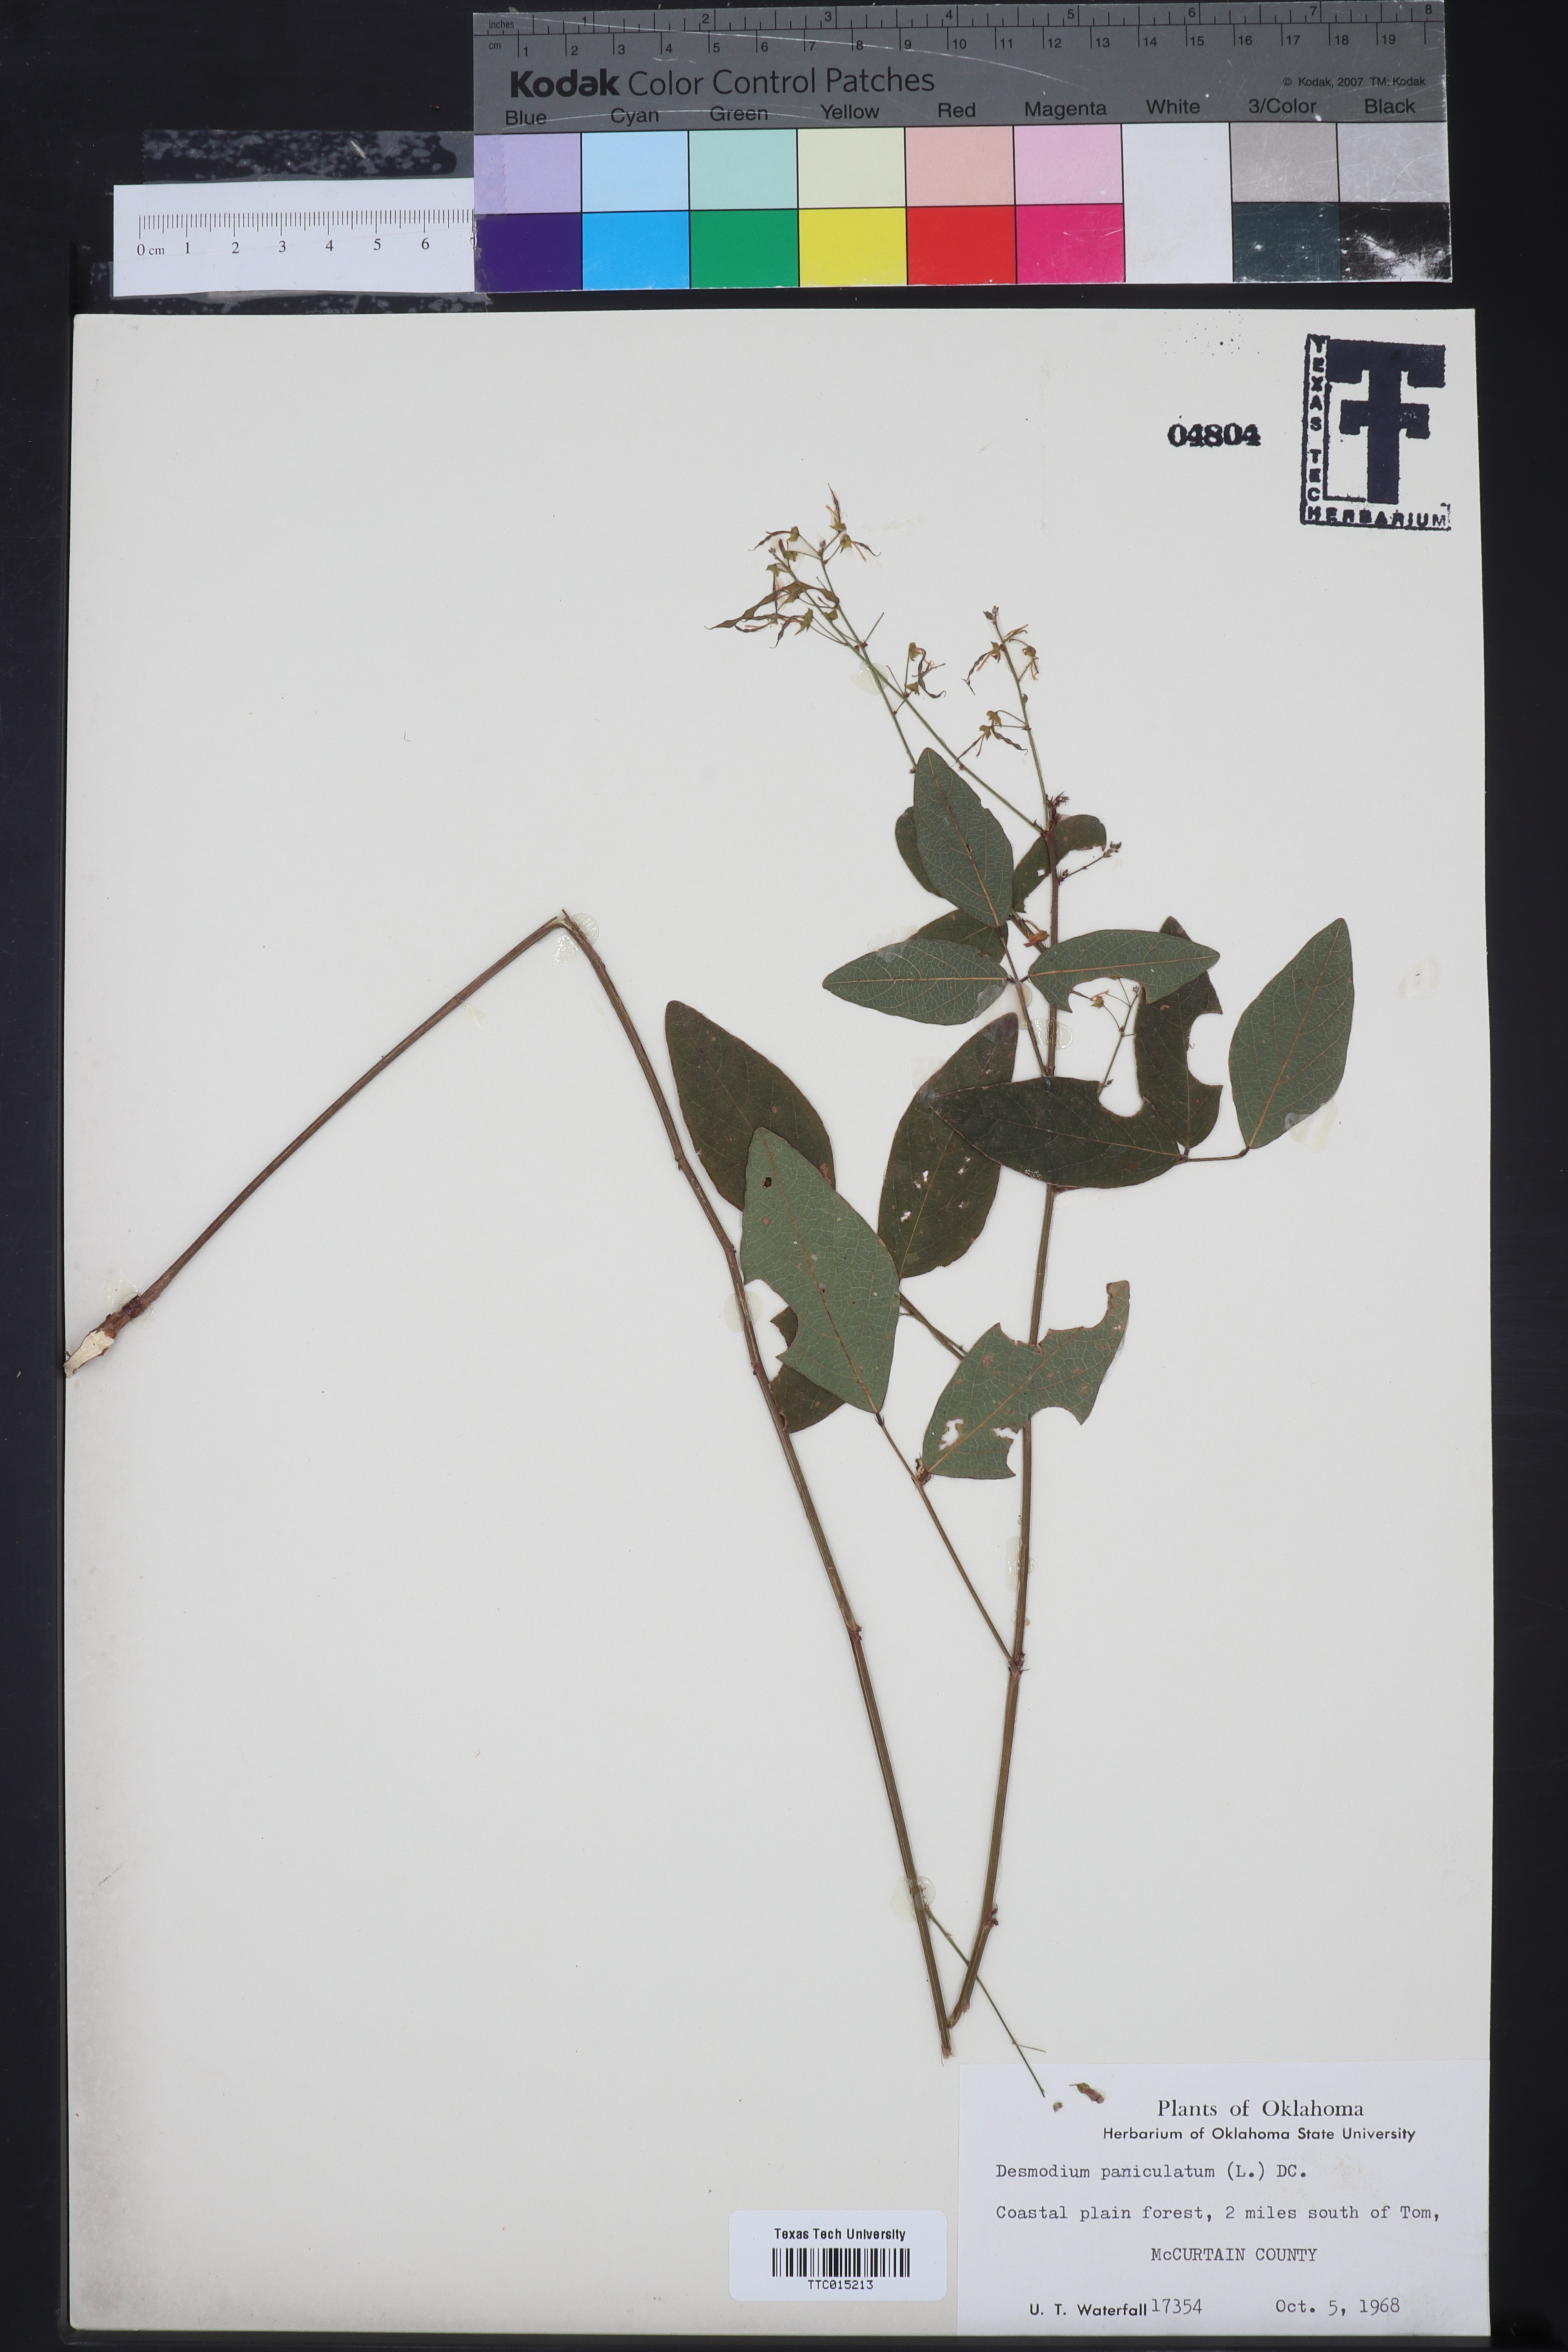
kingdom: Plantae
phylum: Tracheophyta
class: Magnoliopsida
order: Fabales
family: Fabaceae
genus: Desmodium
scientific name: Desmodium paniculatum
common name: Panicled tick-clover
